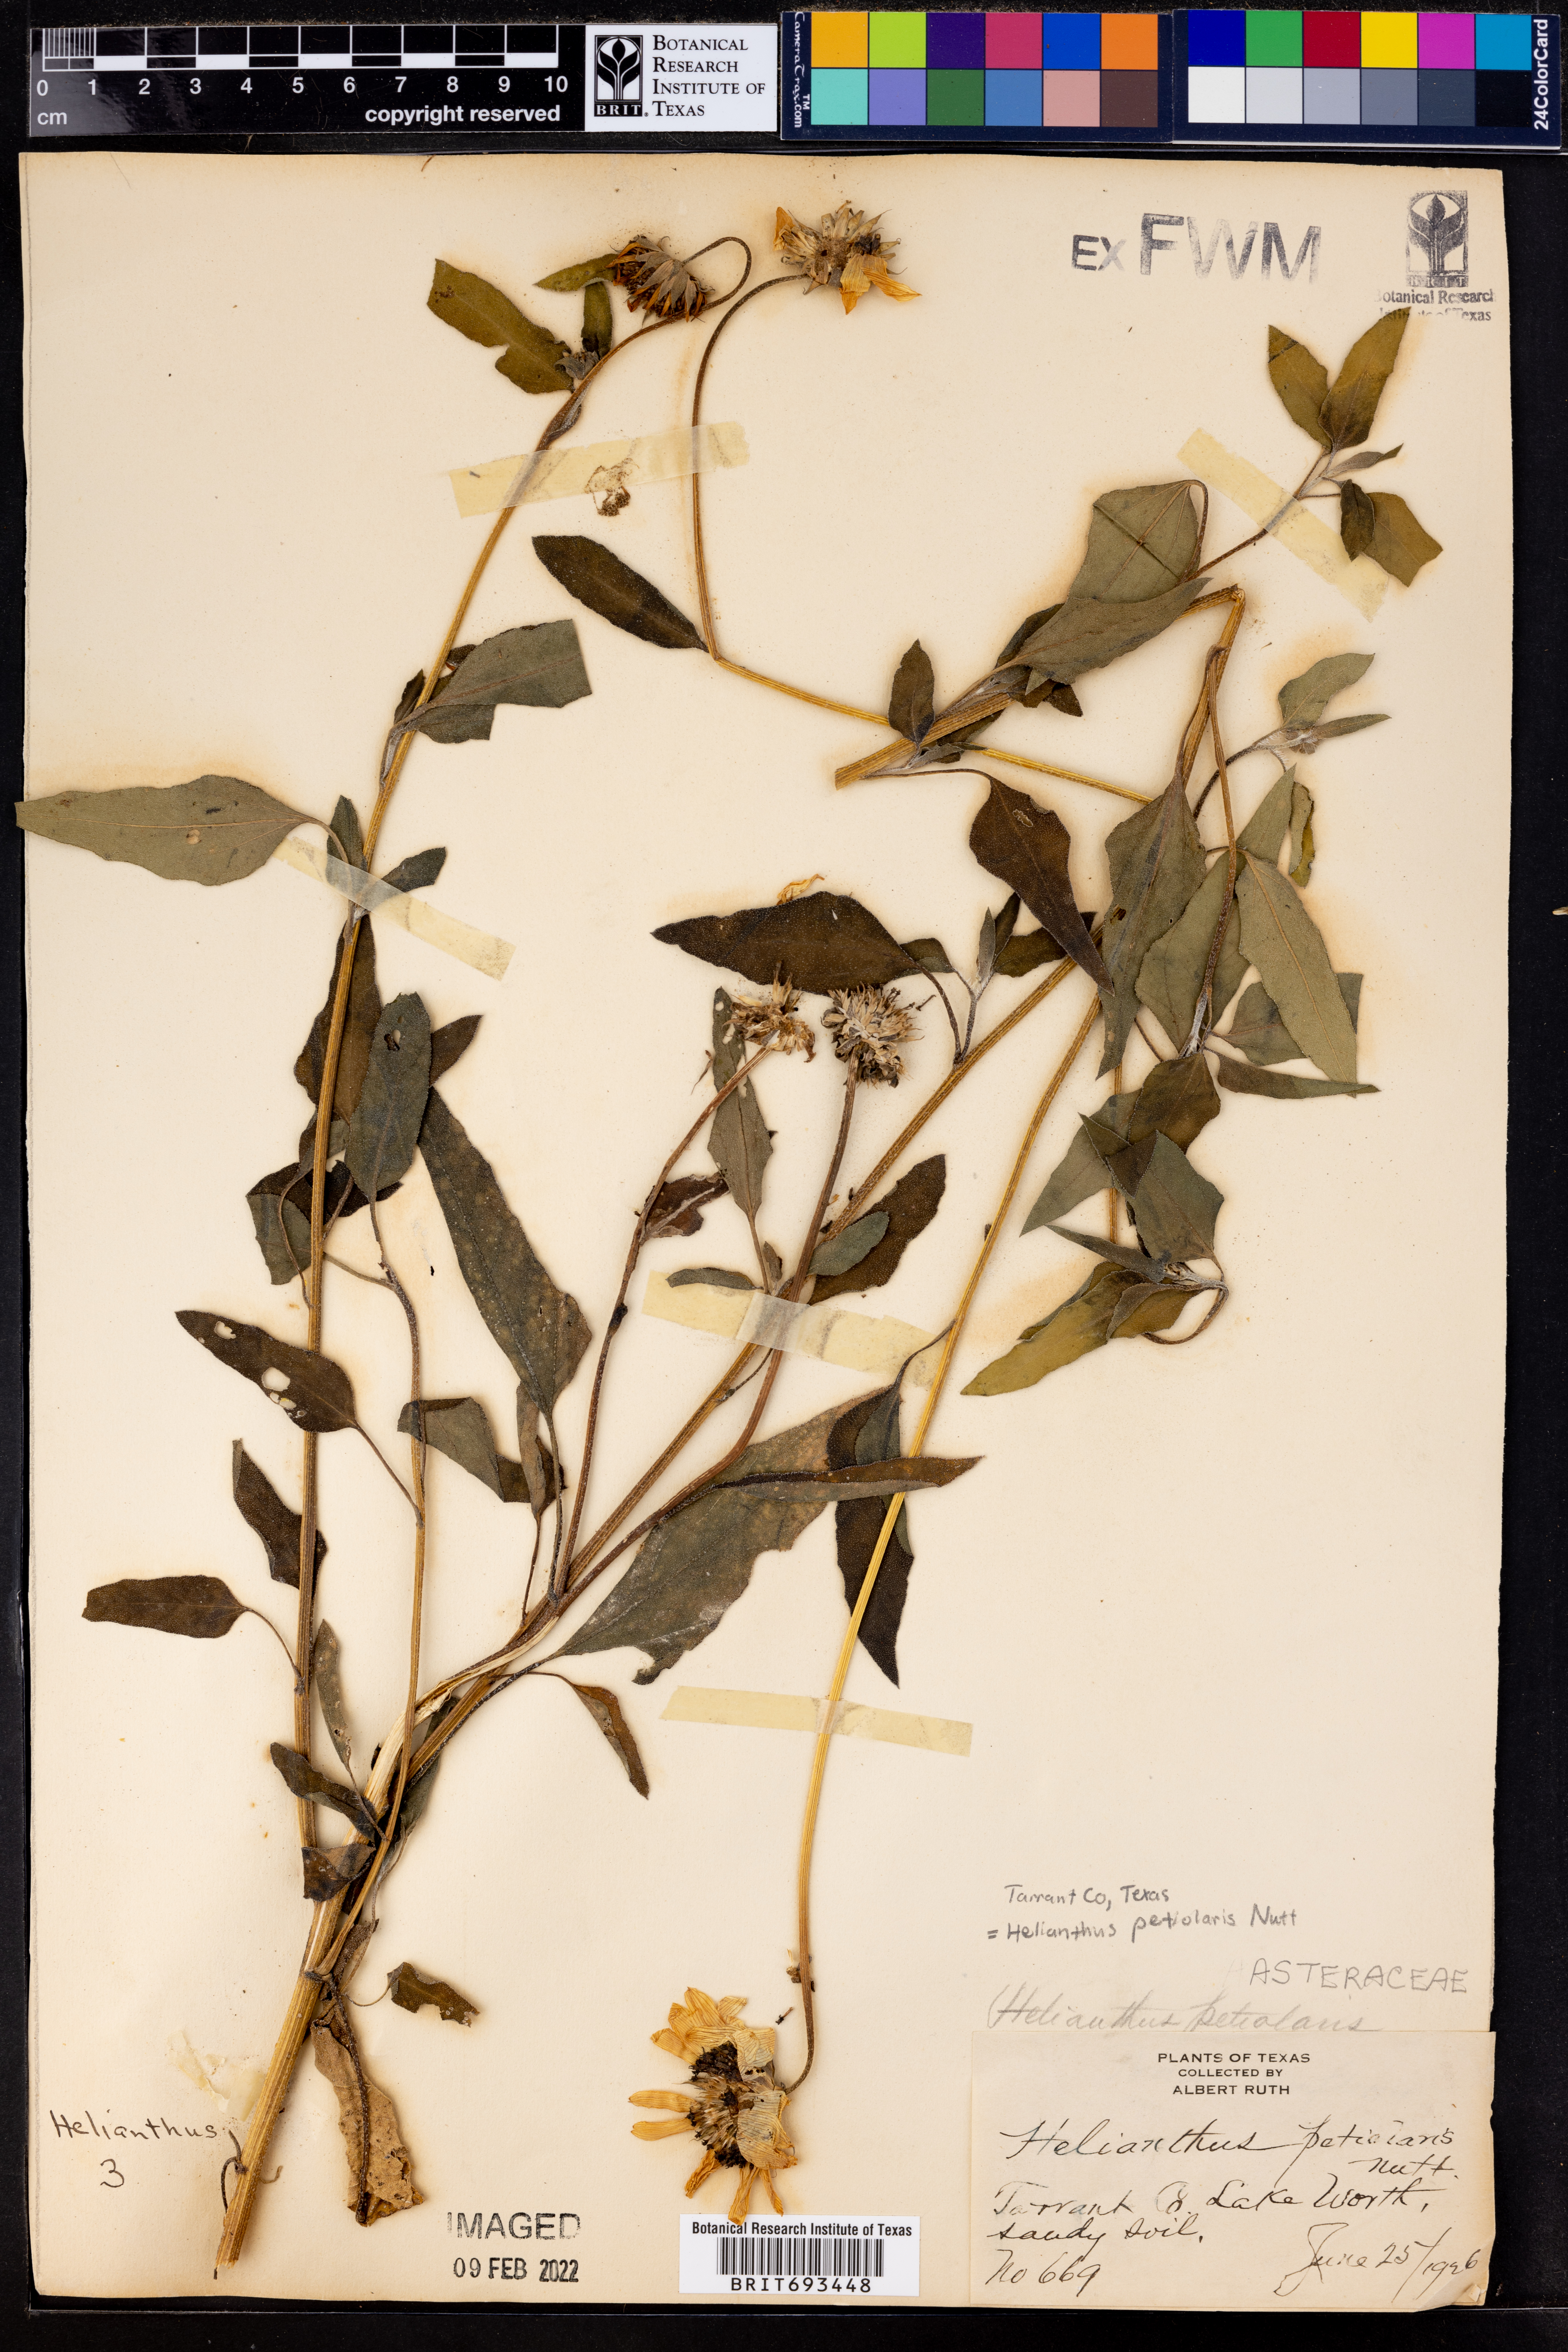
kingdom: Plantae
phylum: Tracheophyta
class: Magnoliopsida
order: Asterales
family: Asteraceae
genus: Helianthus
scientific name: Helianthus petiolaris
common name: Lesser sunflower
